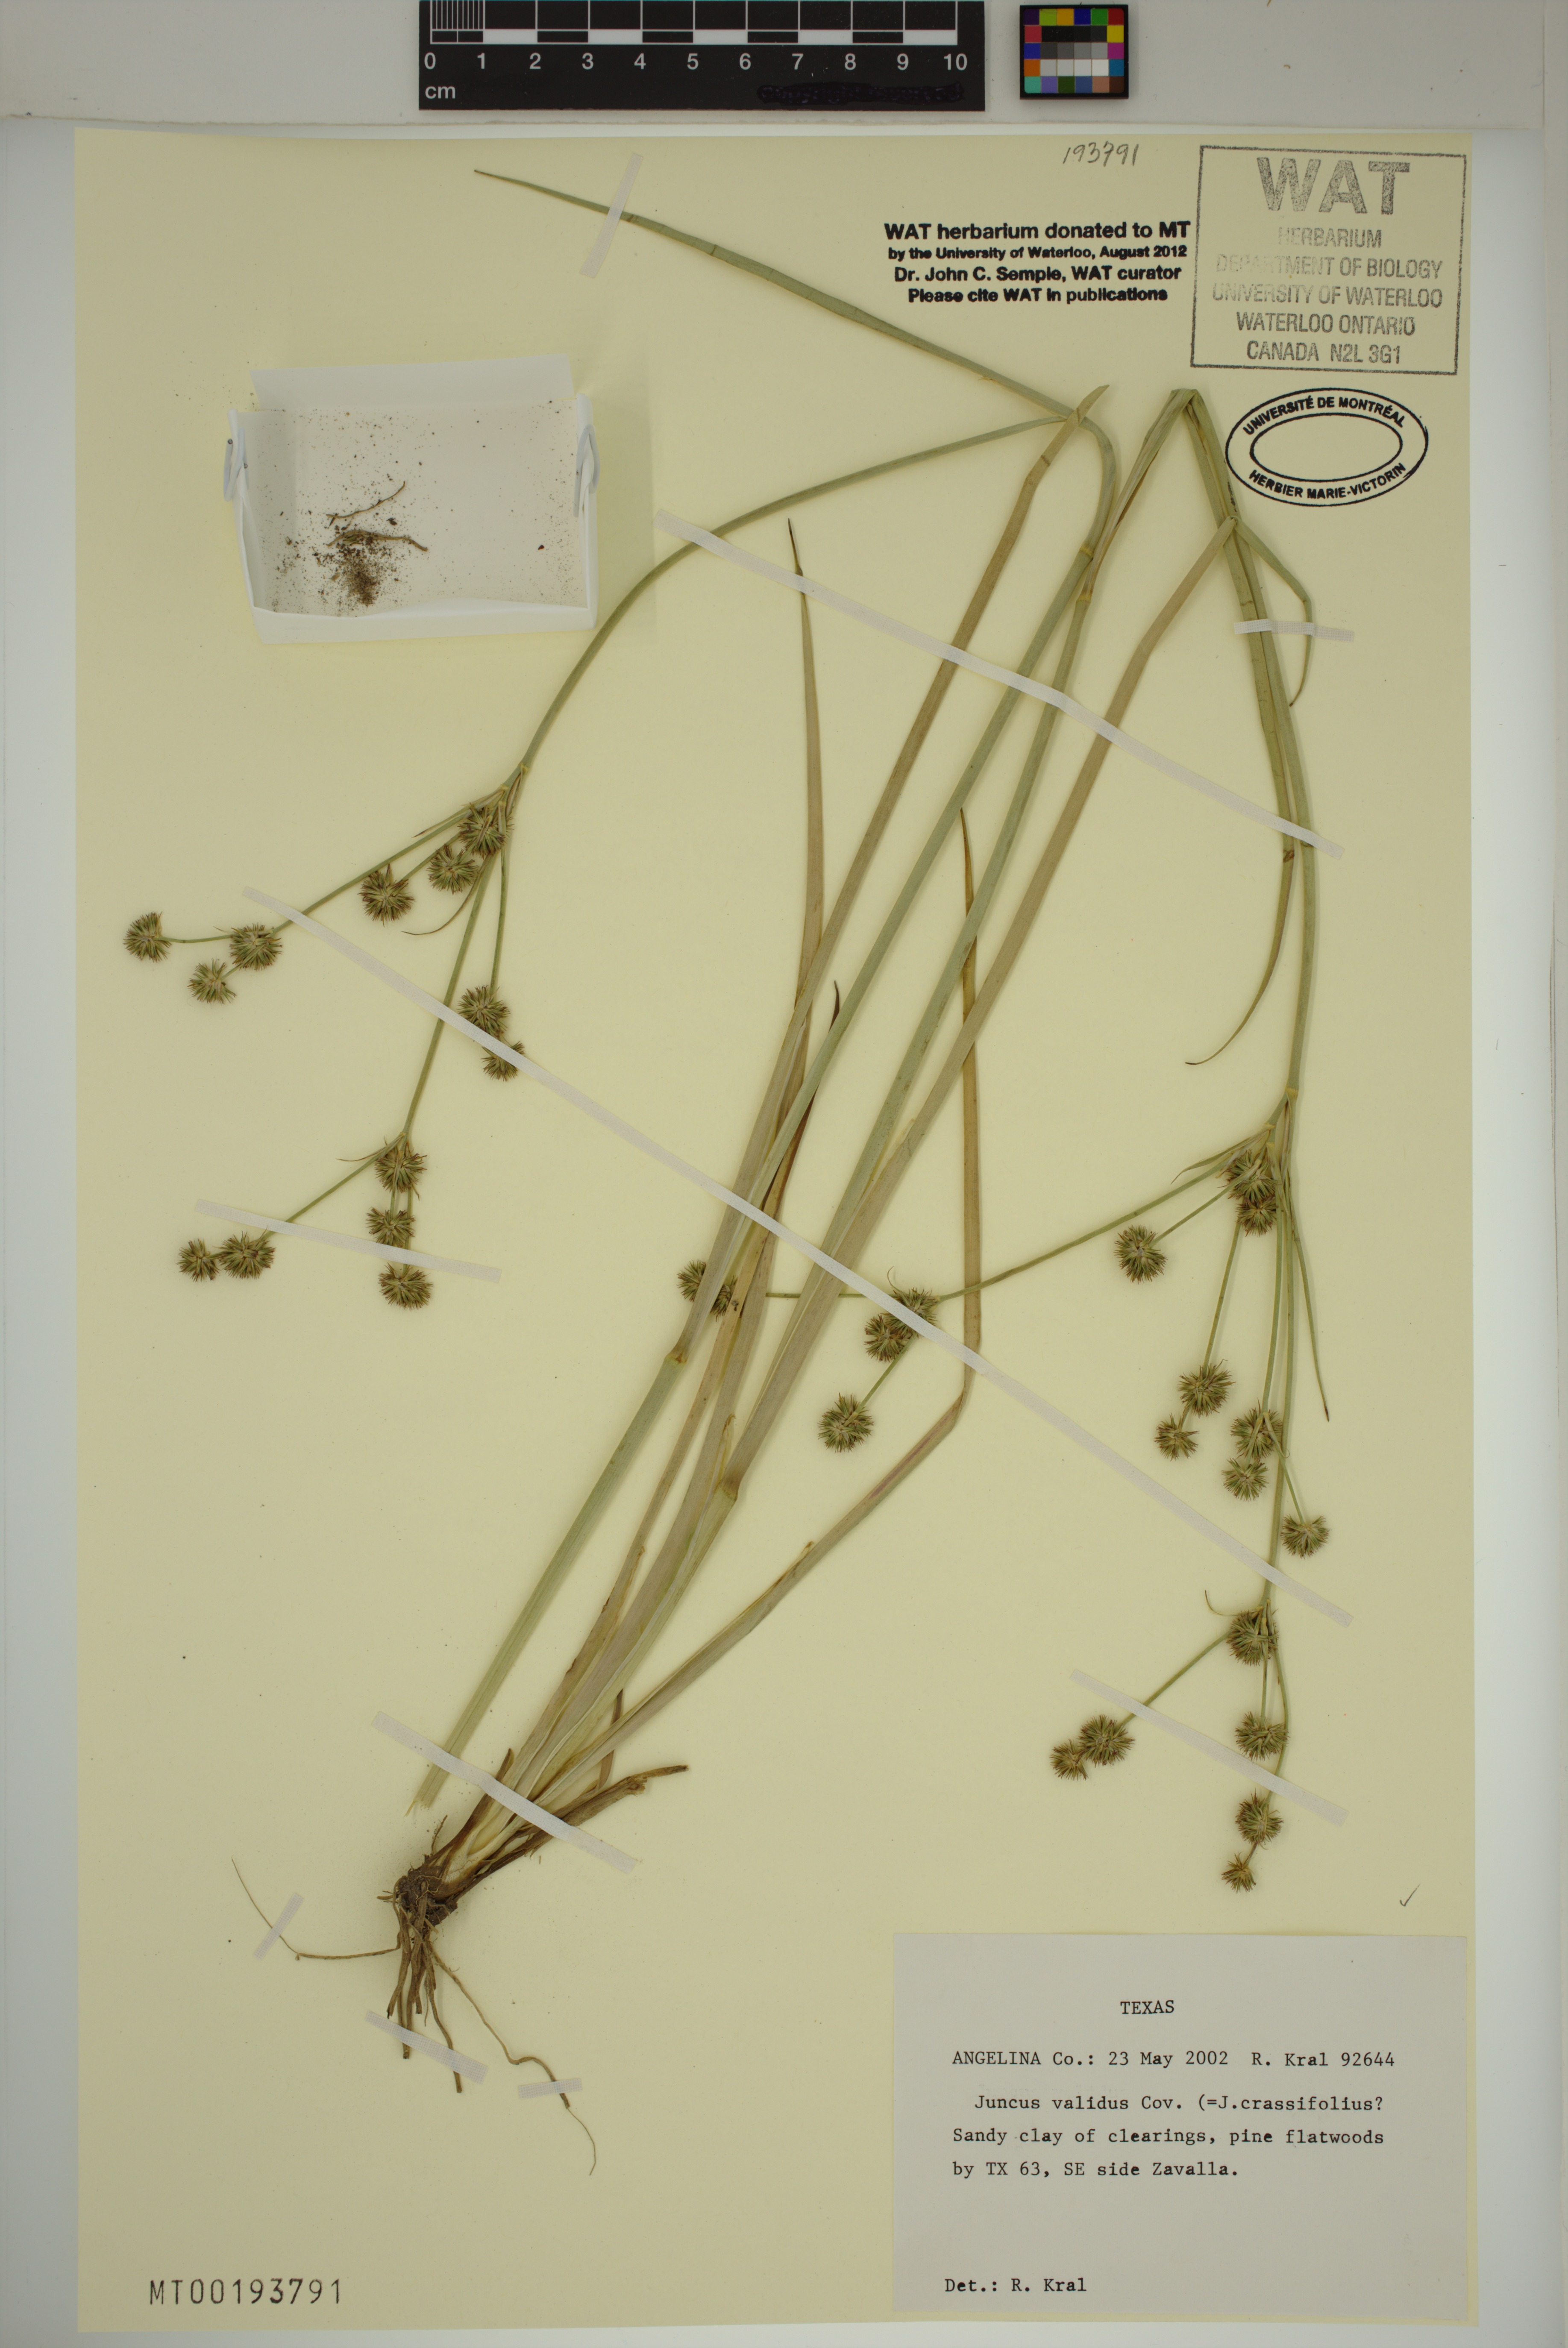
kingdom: Plantae
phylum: Tracheophyta
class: Liliopsida
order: Poales
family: Juncaceae
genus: Juncus
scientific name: Juncus validus
